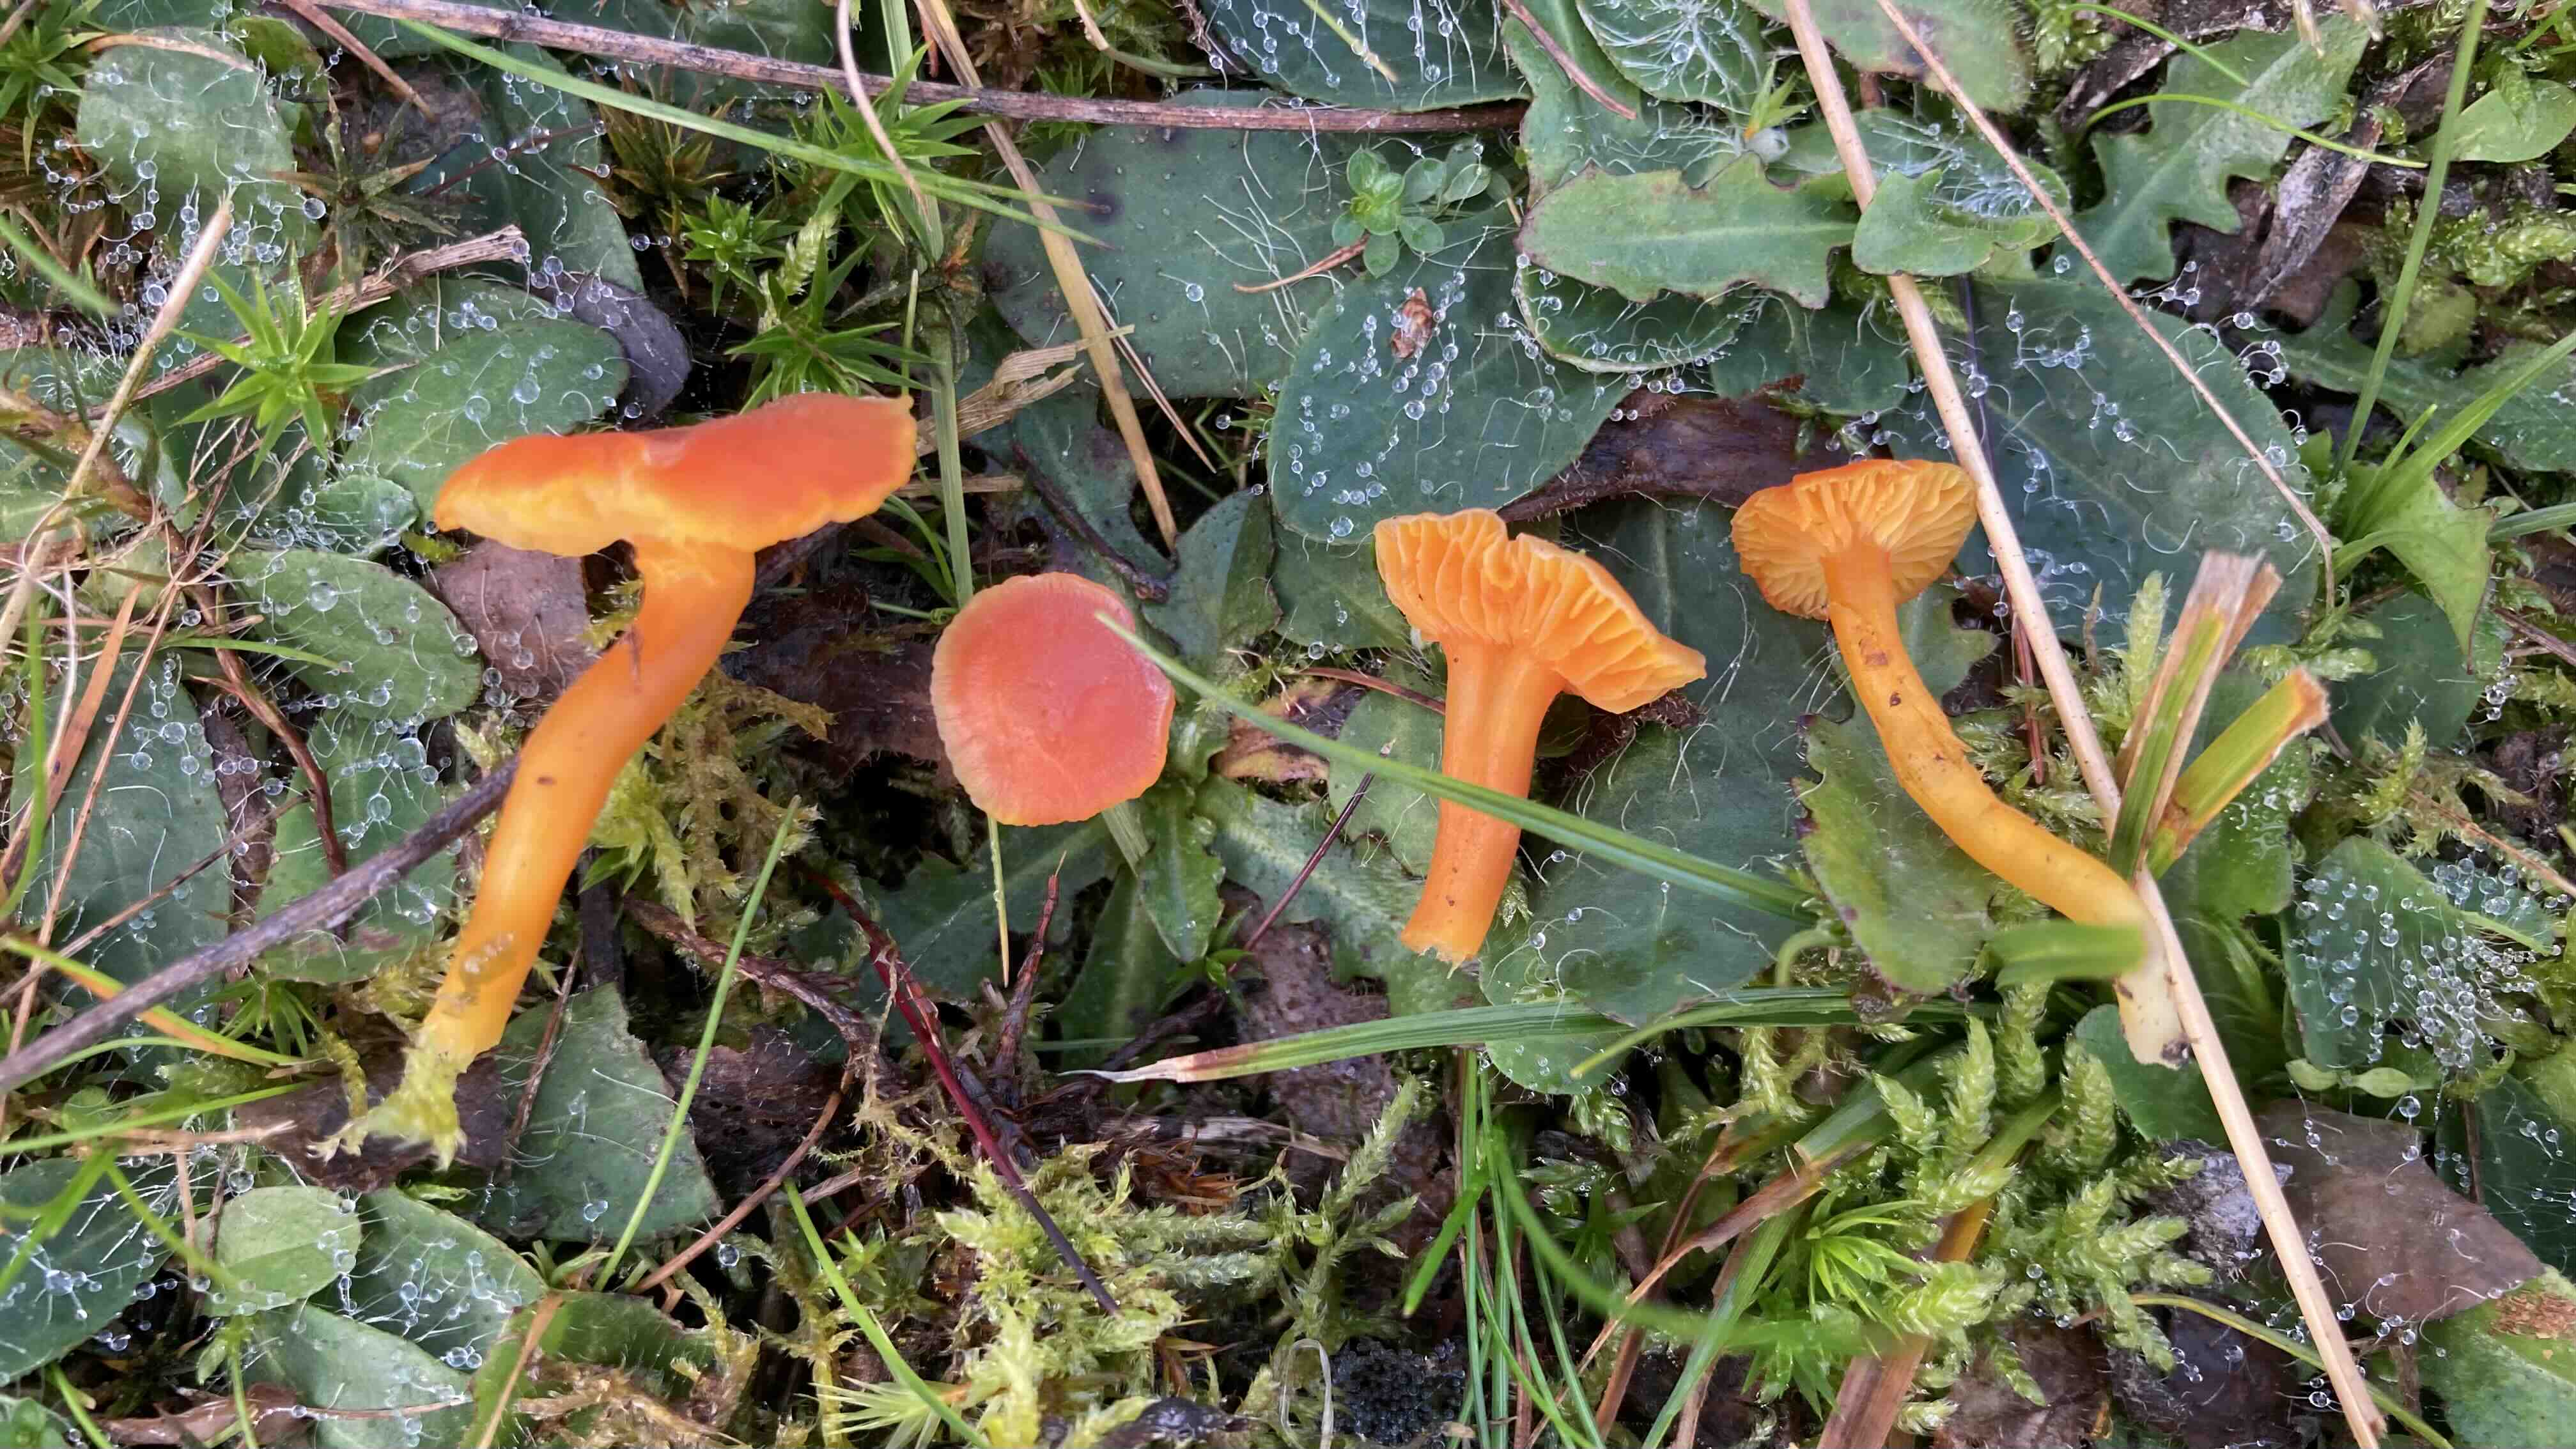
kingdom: Fungi
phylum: Basidiomycota
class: Agaricomycetes
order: Agaricales
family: Hygrophoraceae
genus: Hygrocybe
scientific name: Hygrocybe miniata
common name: mønje-vokshat
